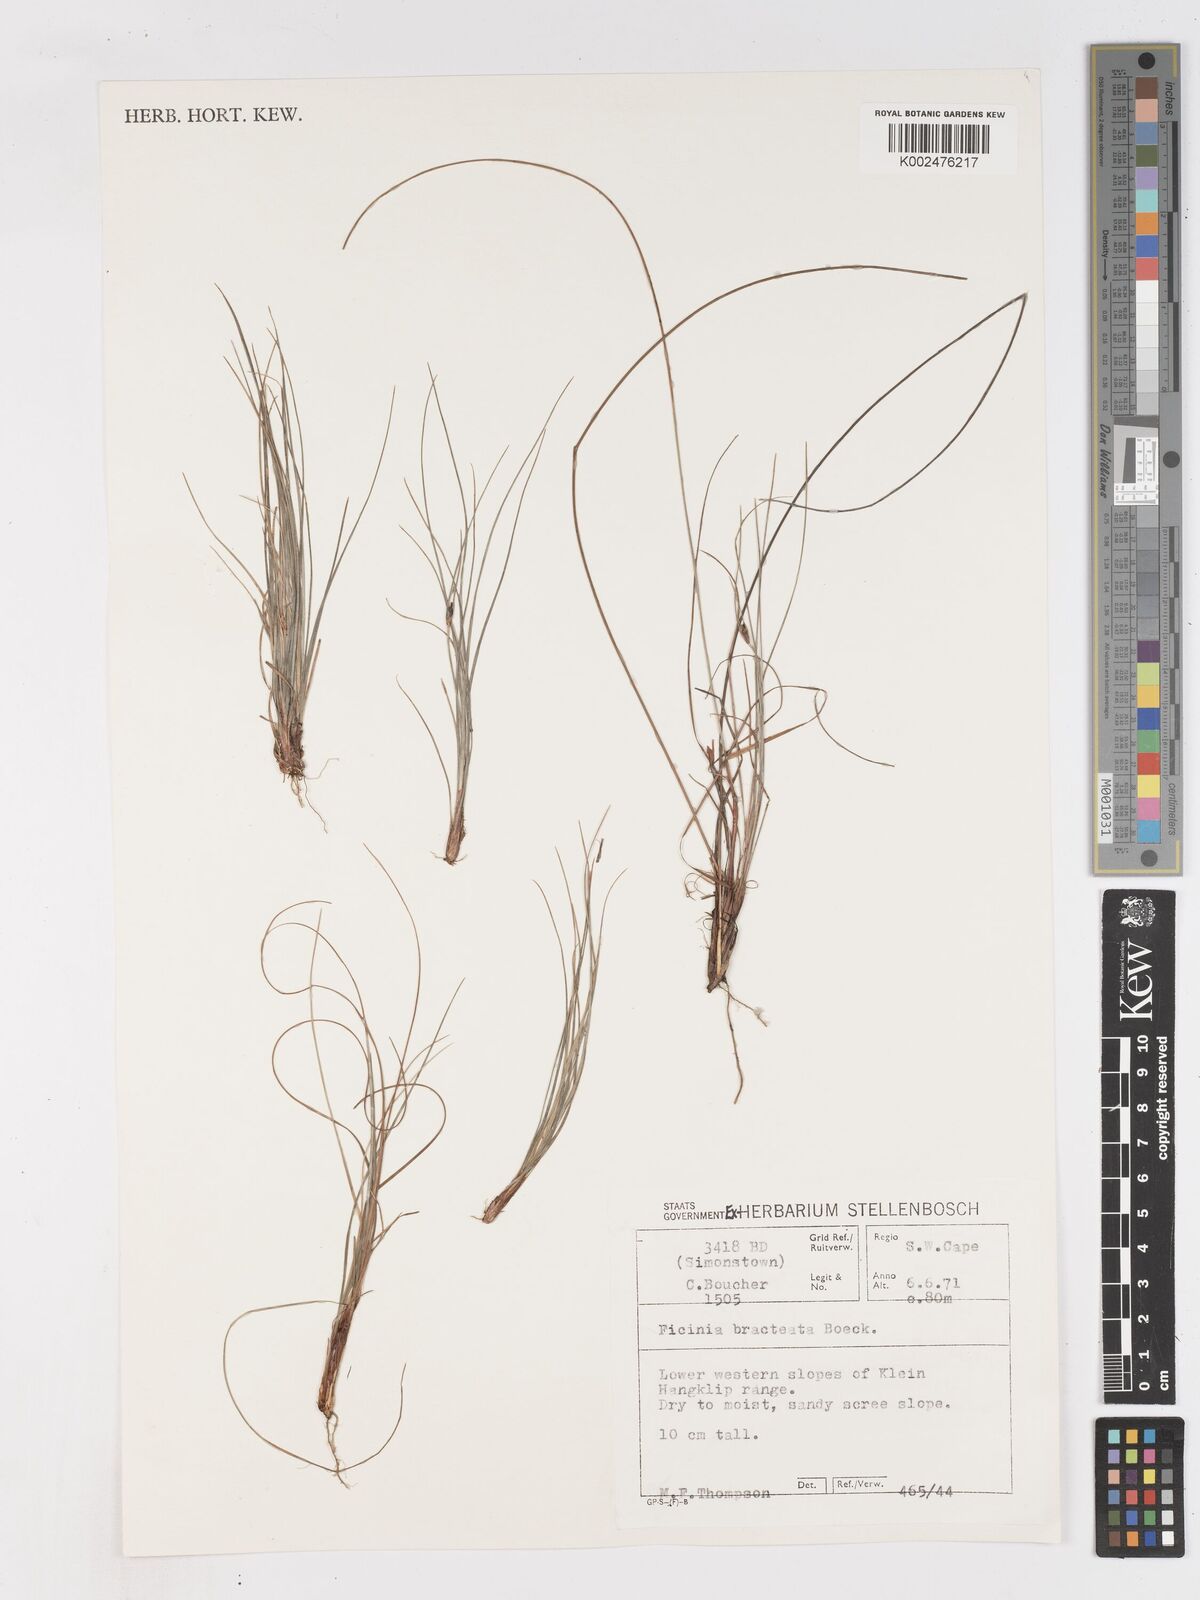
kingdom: Plantae
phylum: Tracheophyta
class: Liliopsida
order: Poales
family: Cyperaceae
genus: Ficinia
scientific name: Ficinia nigrescens
